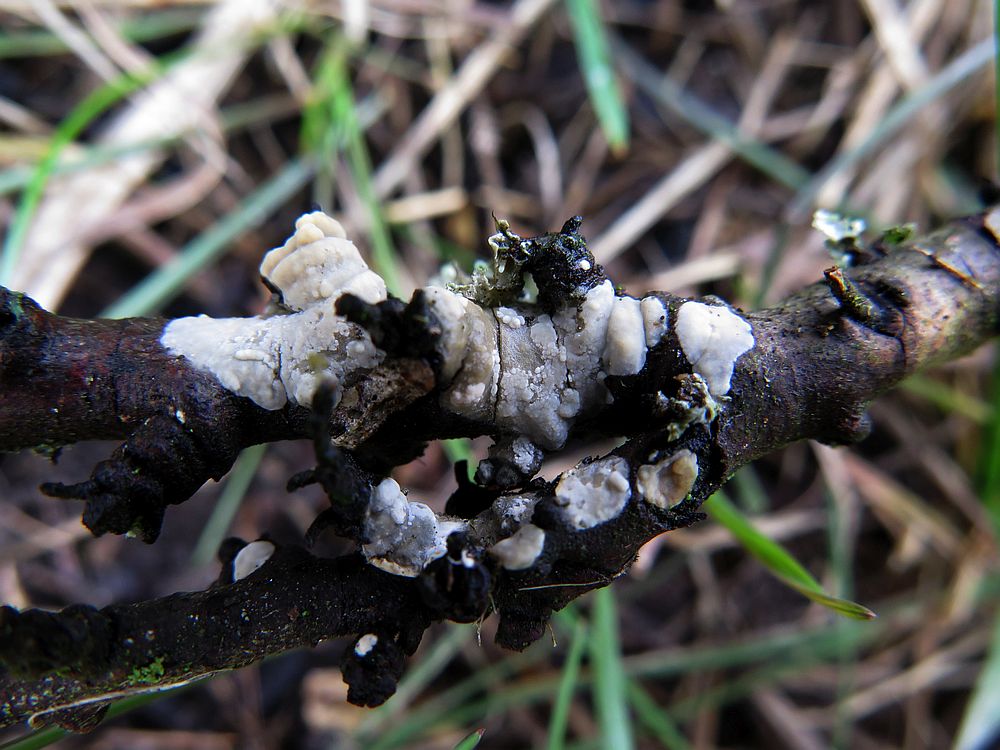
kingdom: Fungi
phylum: Basidiomycota
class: Agaricomycetes
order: Agaricales
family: Radulomycetaceae
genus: Radulomyces
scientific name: Radulomyces confluens
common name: glat naftalinskind
